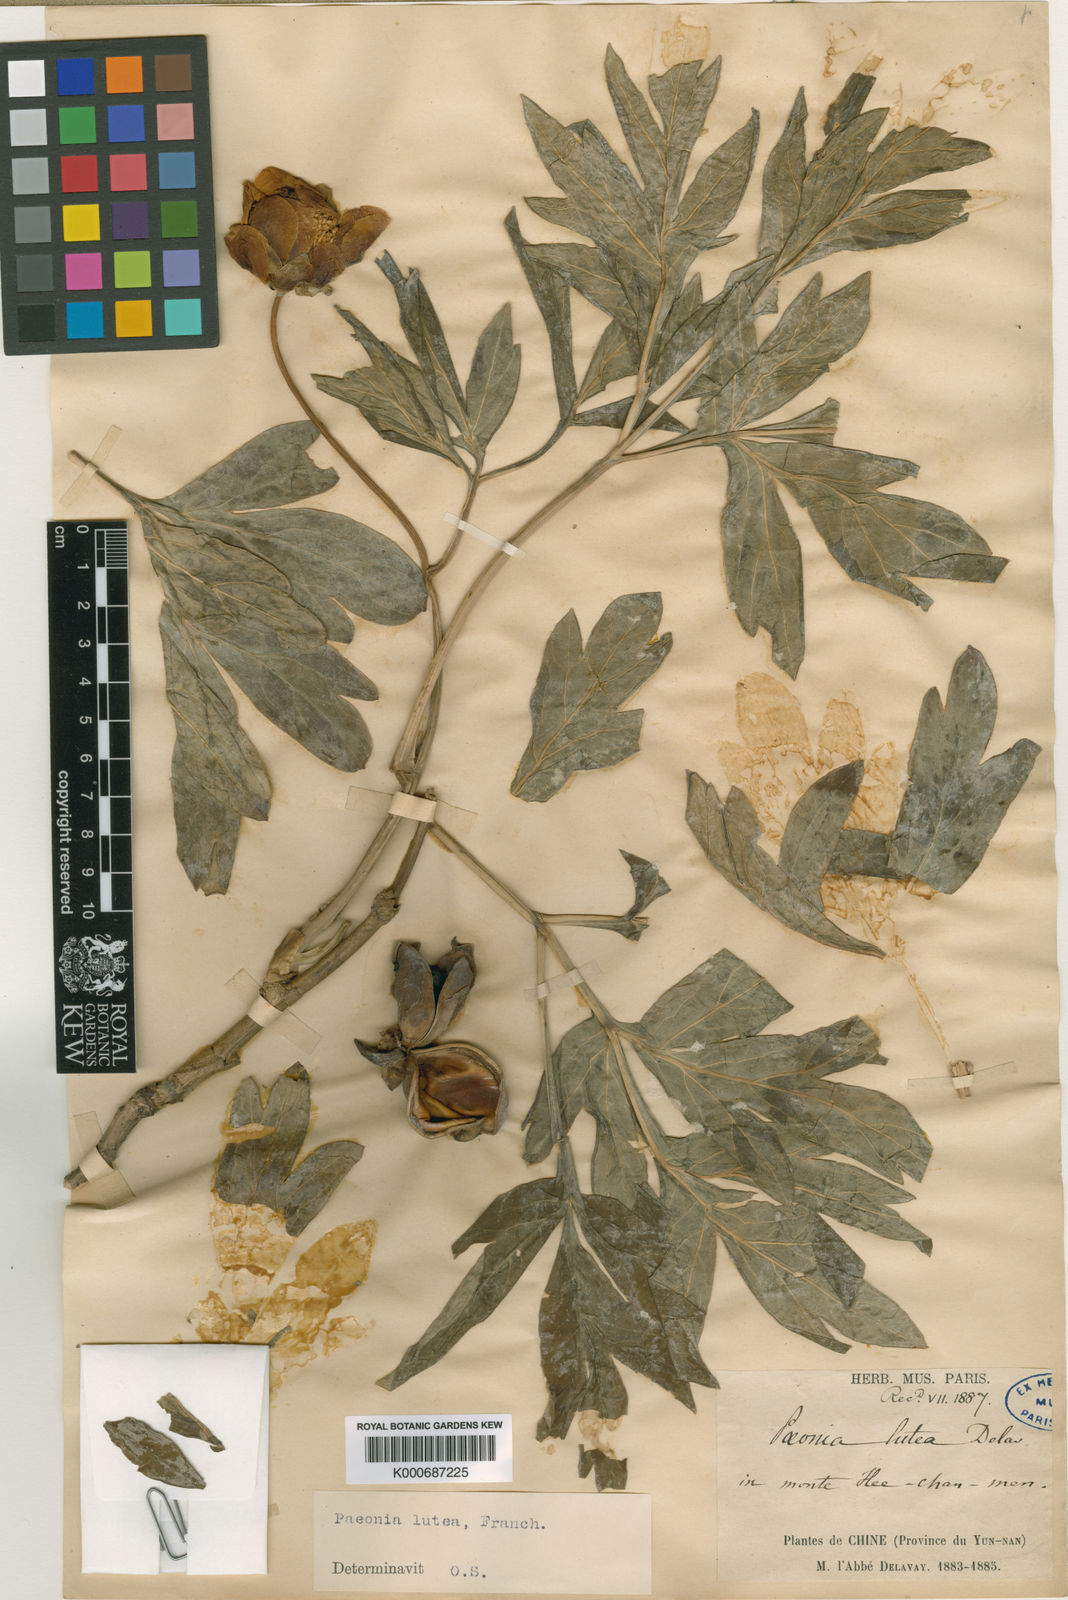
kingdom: Plantae
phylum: Tracheophyta
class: Magnoliopsida
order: Saxifragales
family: Paeoniaceae
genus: Paeonia
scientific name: Paeonia delavayi
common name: Dian mu dan
